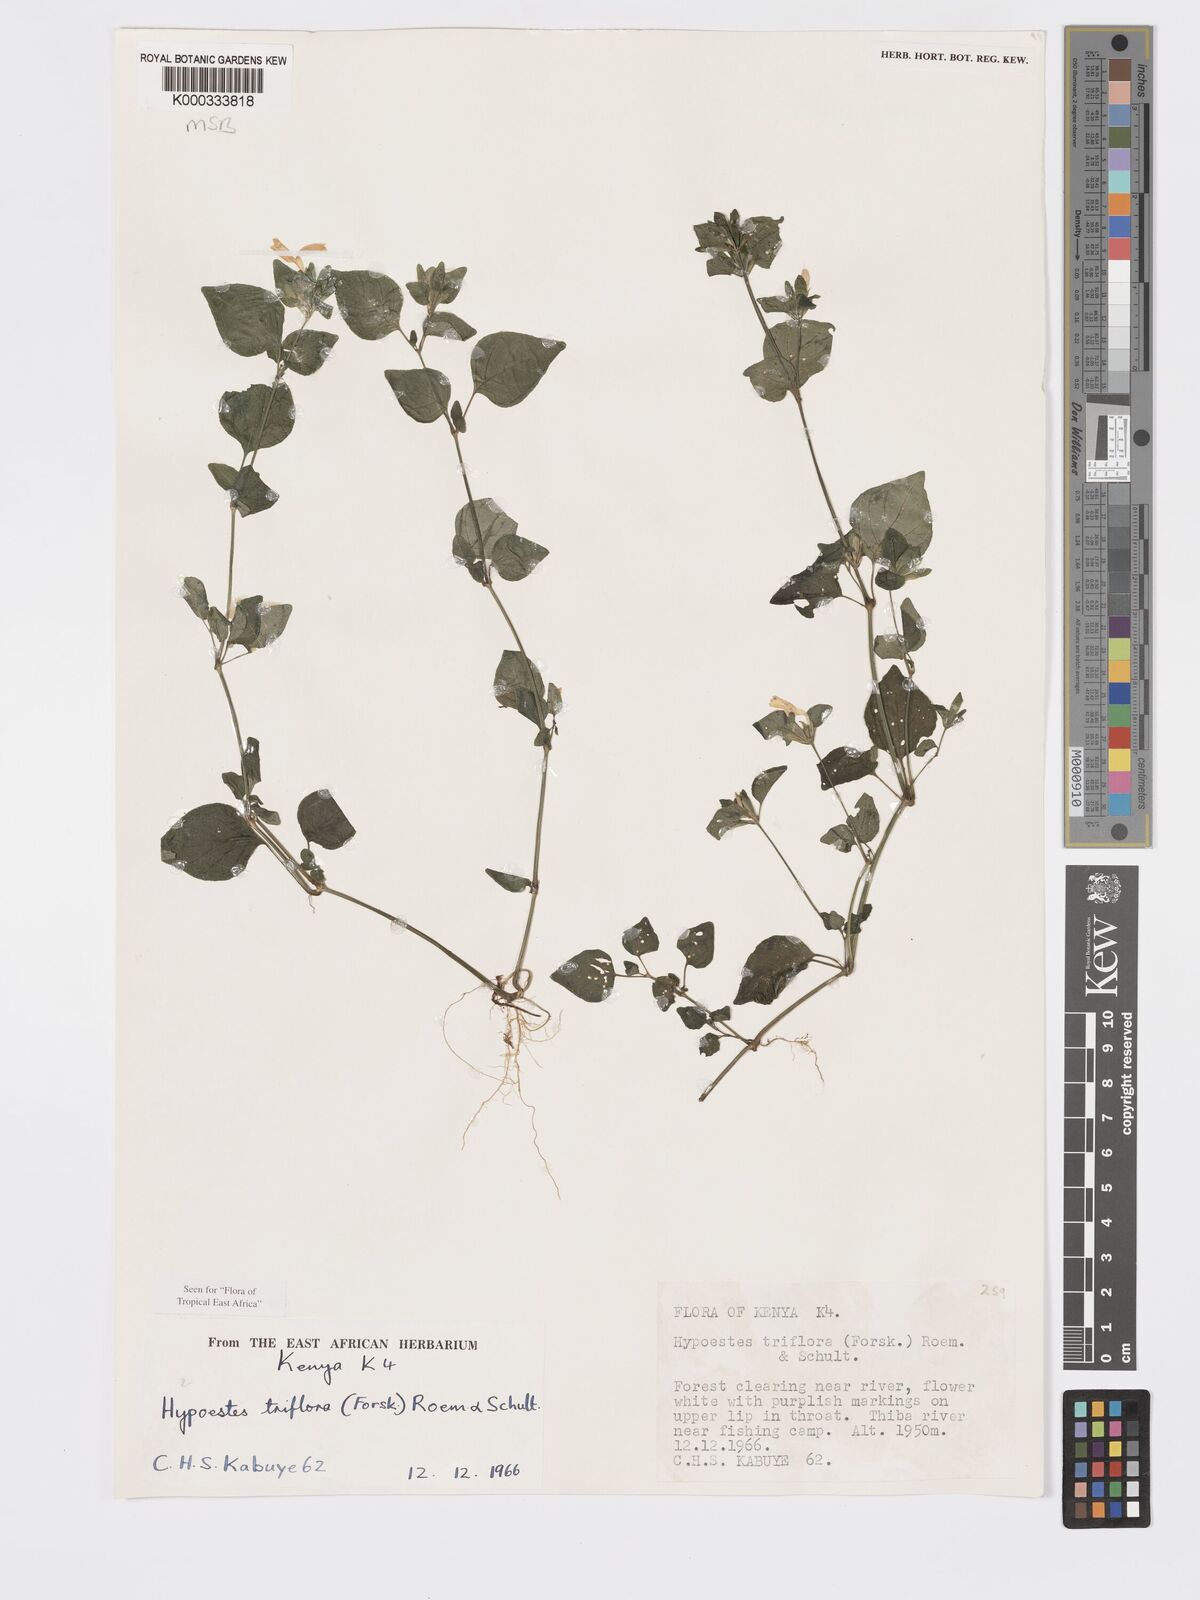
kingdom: Plantae
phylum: Tracheophyta
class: Magnoliopsida
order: Lamiales
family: Acanthaceae
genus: Hypoestes
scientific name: Hypoestes triflora
